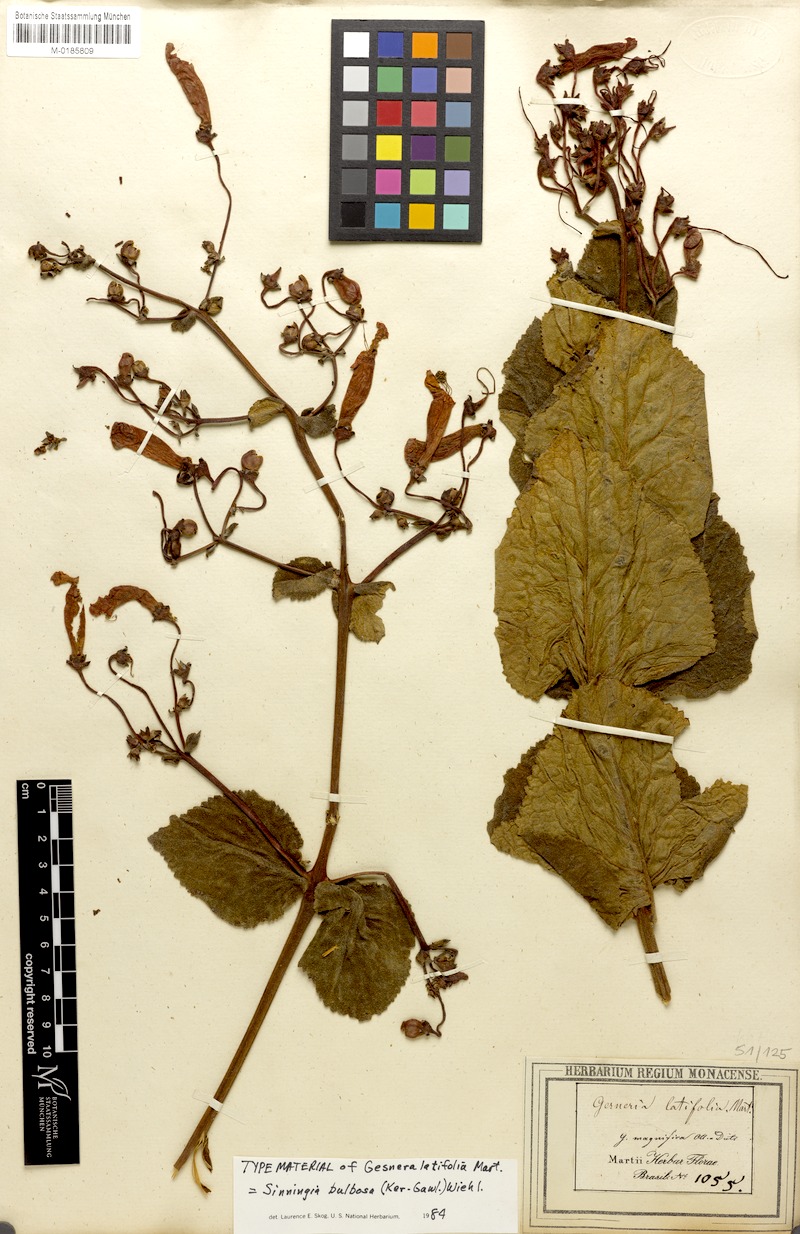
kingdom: Plantae
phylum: Tracheophyta
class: Magnoliopsida
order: Lamiales
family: Gesneriaceae
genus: Sinningia
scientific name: Sinningia magnifica
